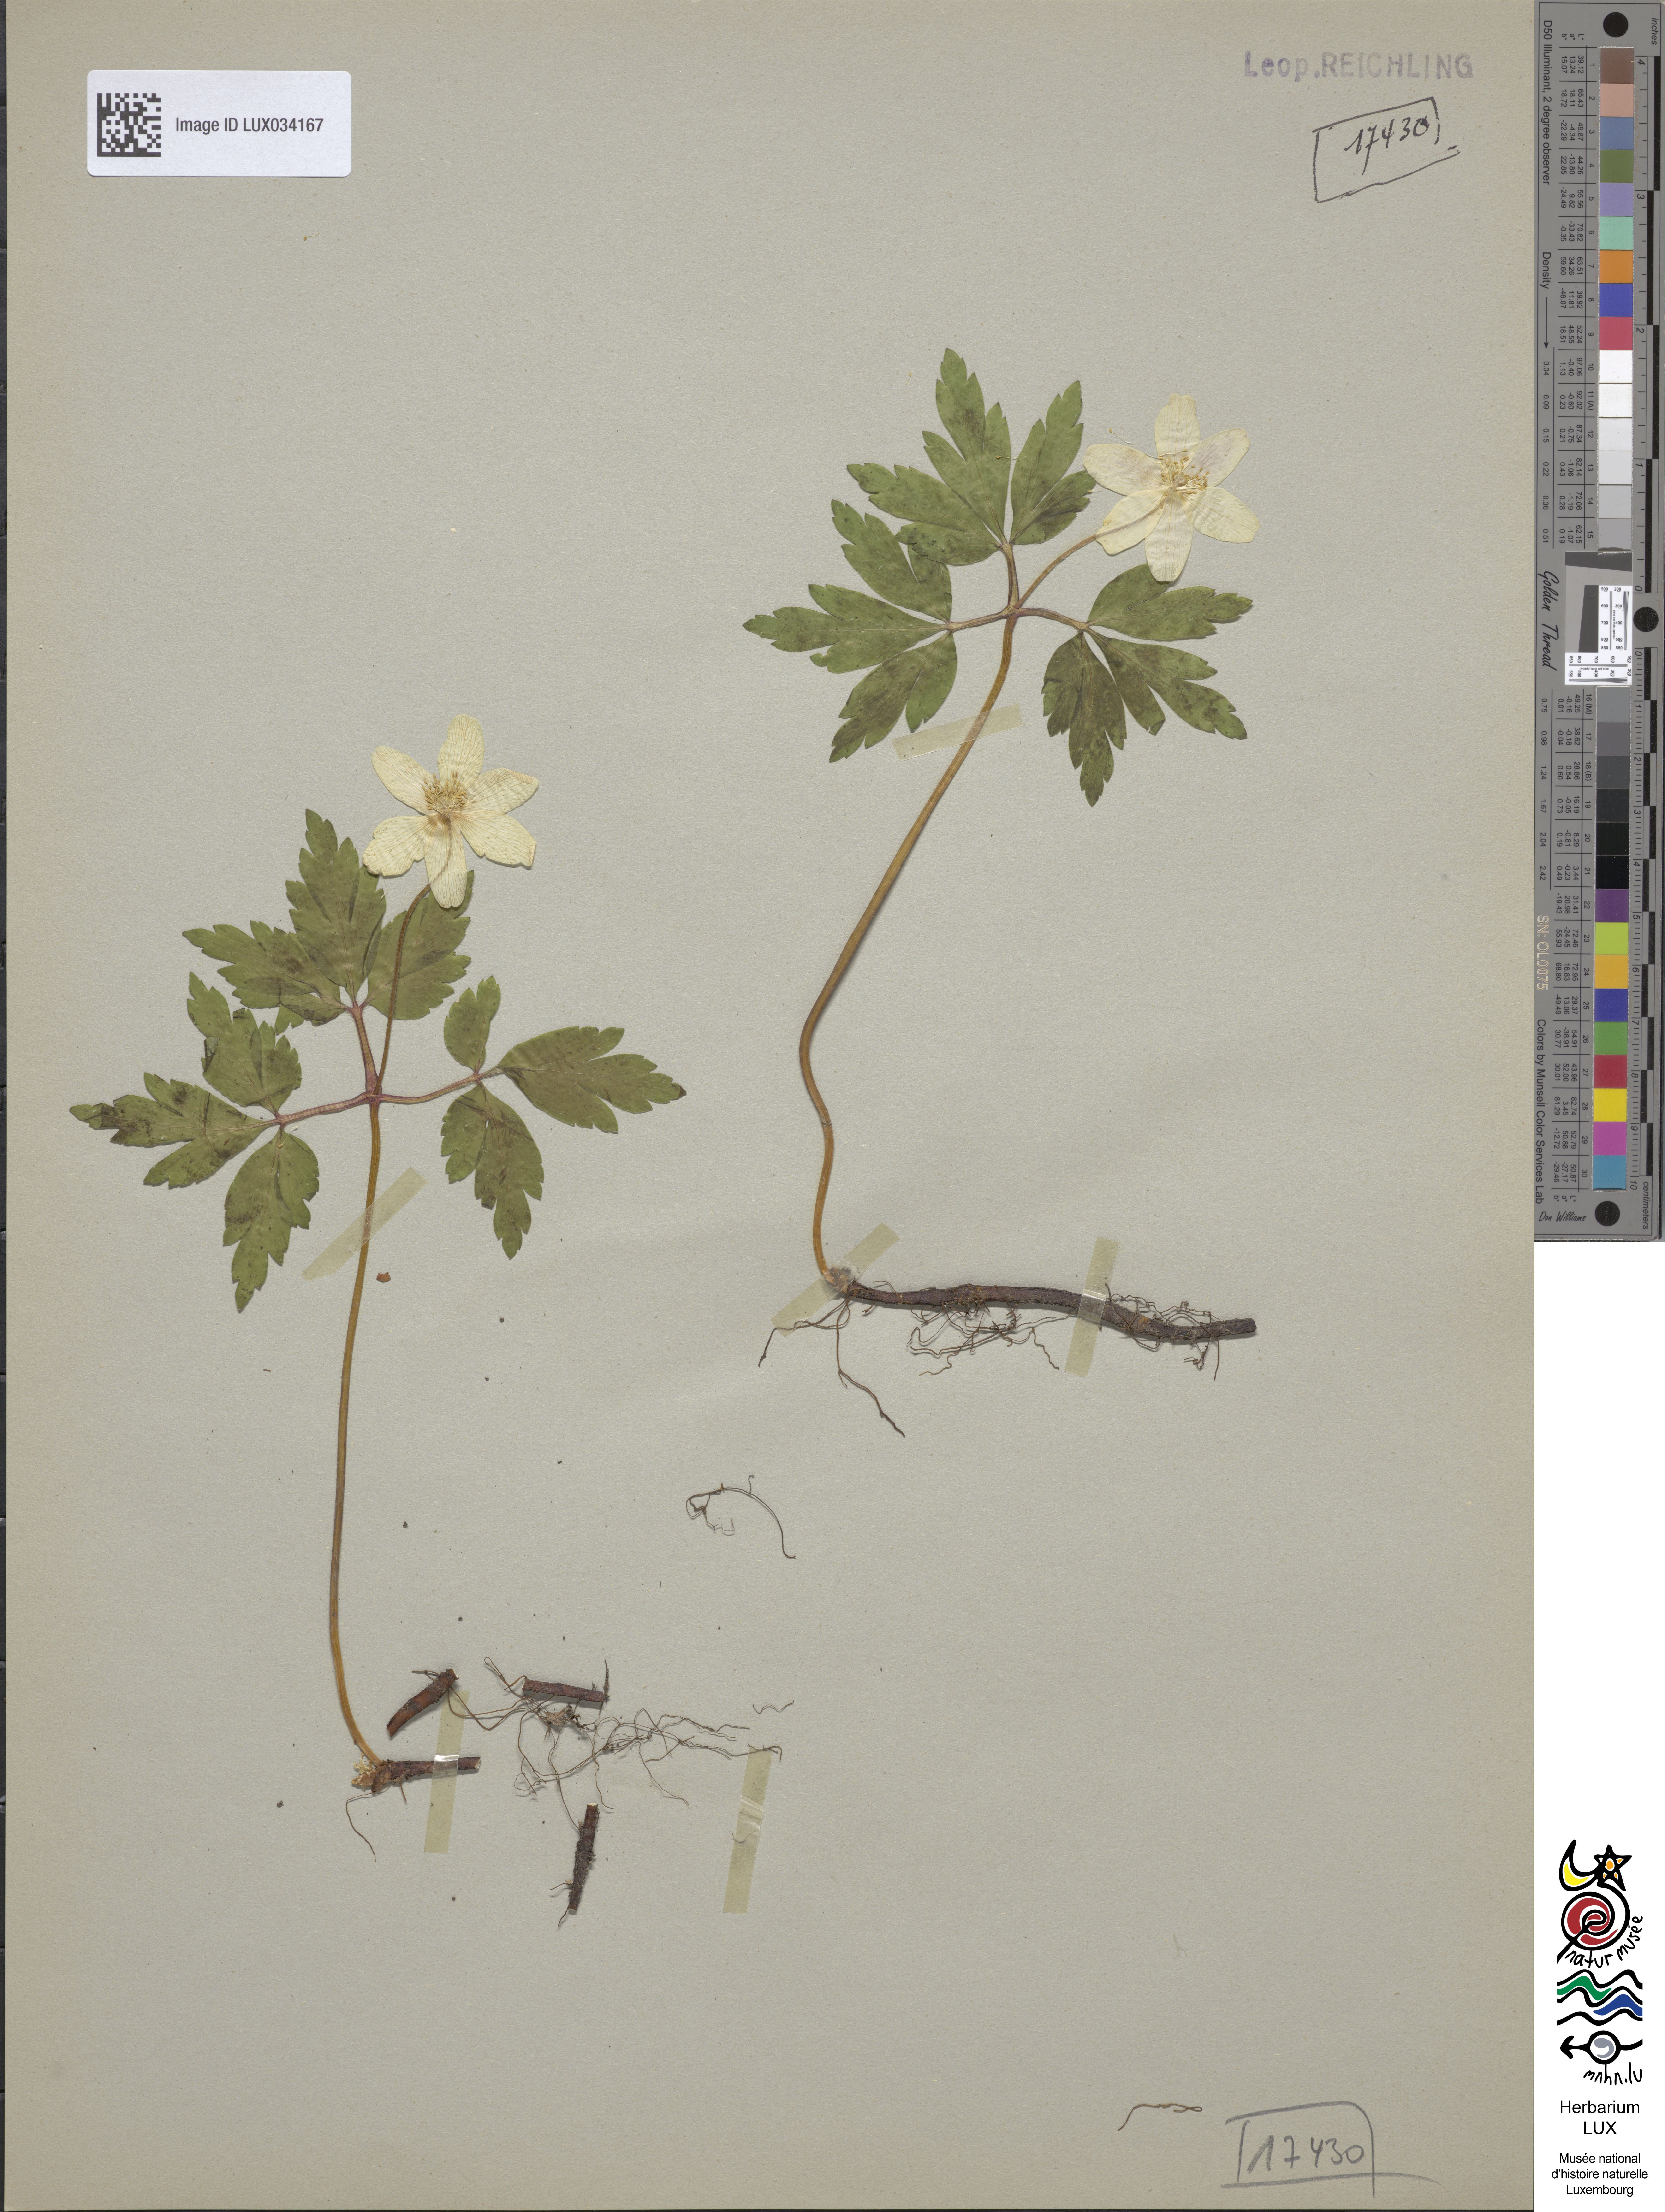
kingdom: Plantae
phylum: Tracheophyta
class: Magnoliopsida
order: Ranunculales
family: Ranunculaceae
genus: Anemone
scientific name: Anemone nemorosa
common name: Wood anemone
